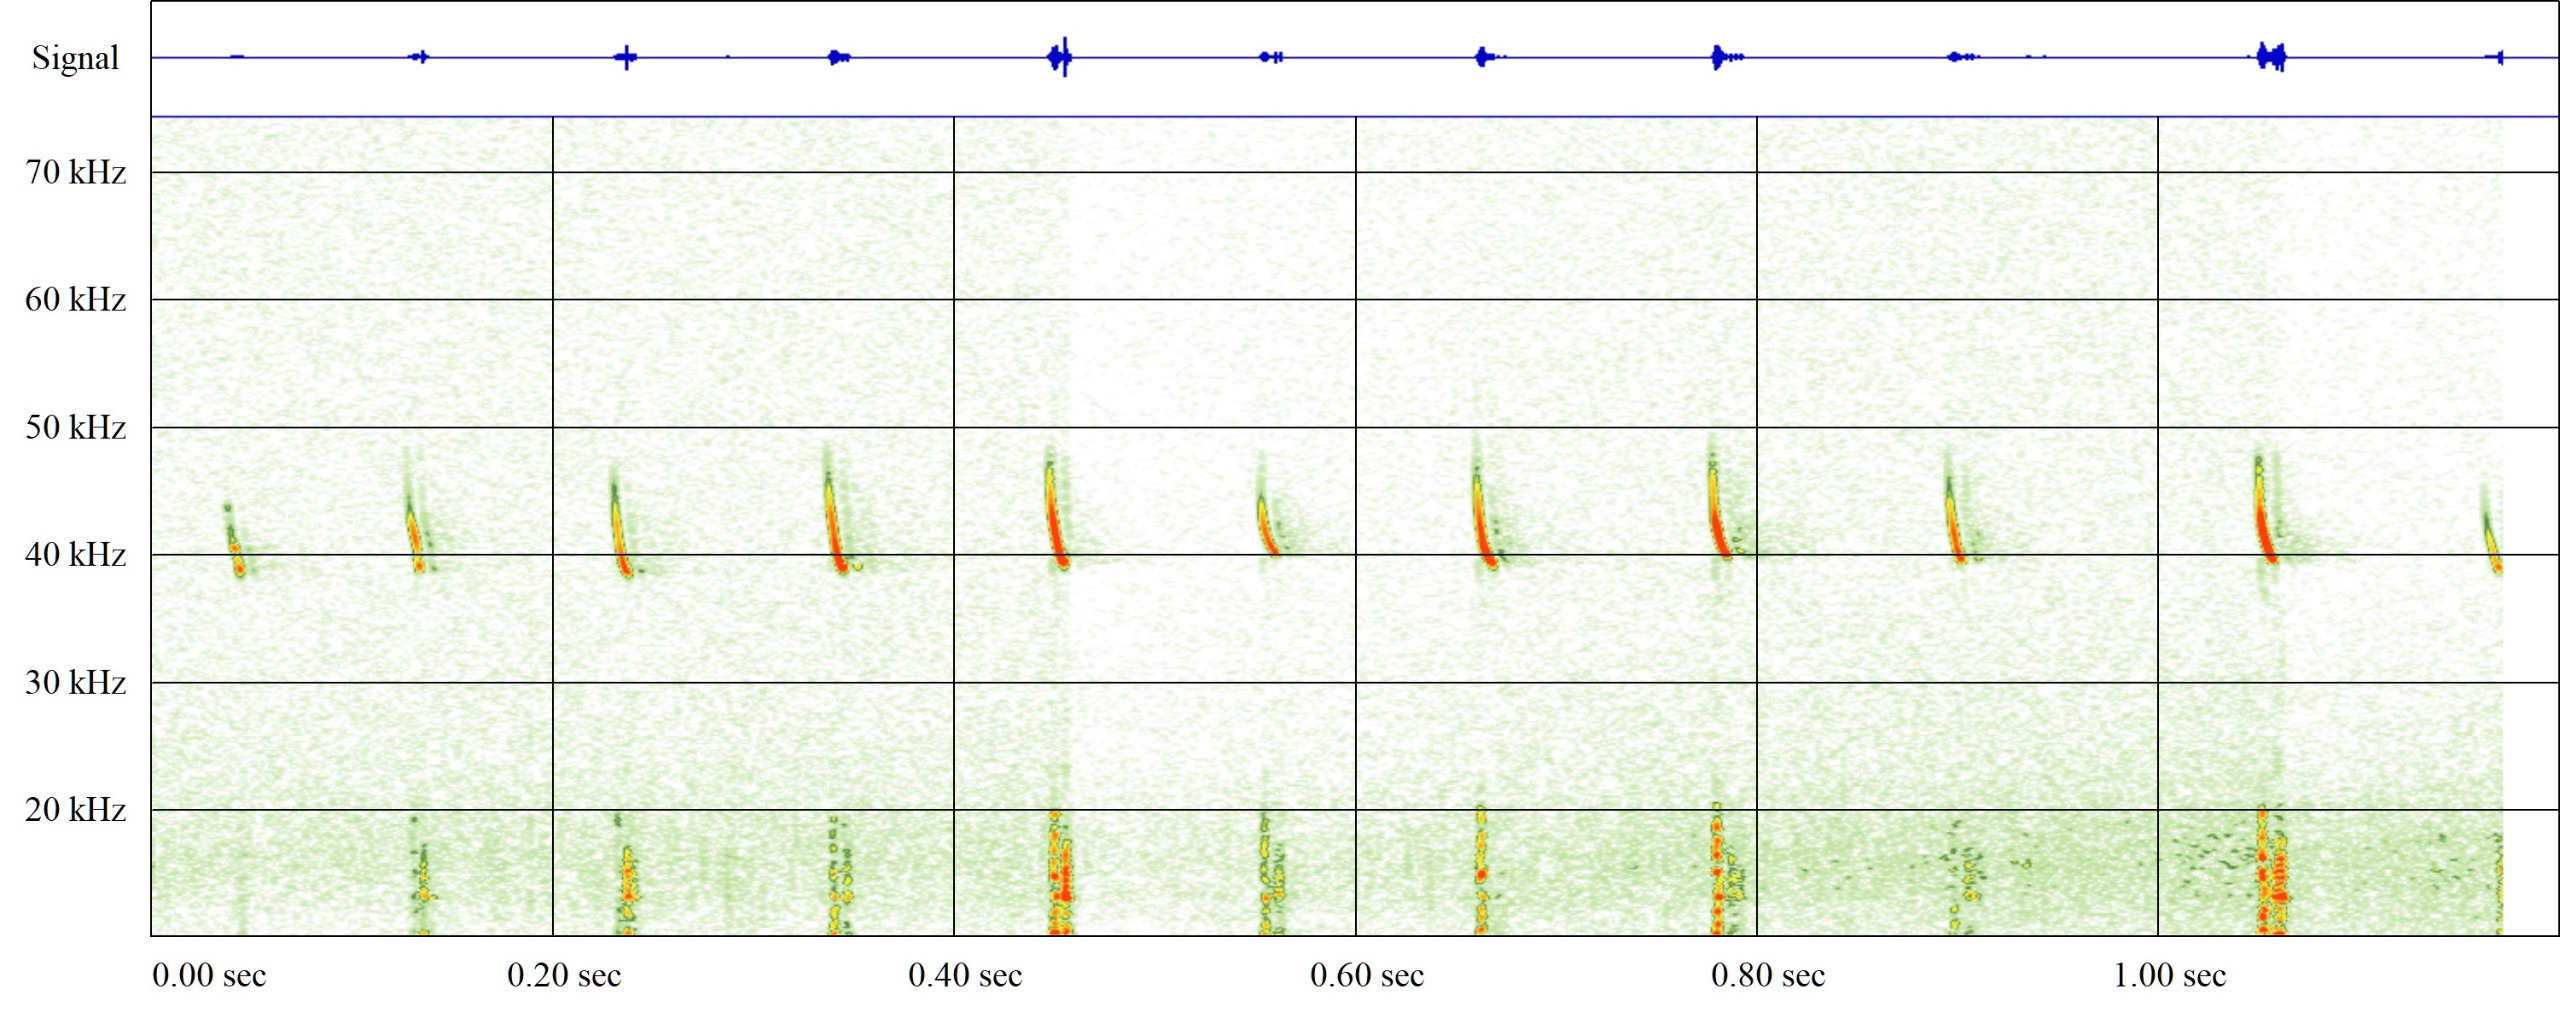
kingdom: Animalia
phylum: Chordata
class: Mammalia
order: Chiroptera
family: Vespertilionidae
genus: Pipistrellus
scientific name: Pipistrellus nathusii
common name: Troldflagermus
